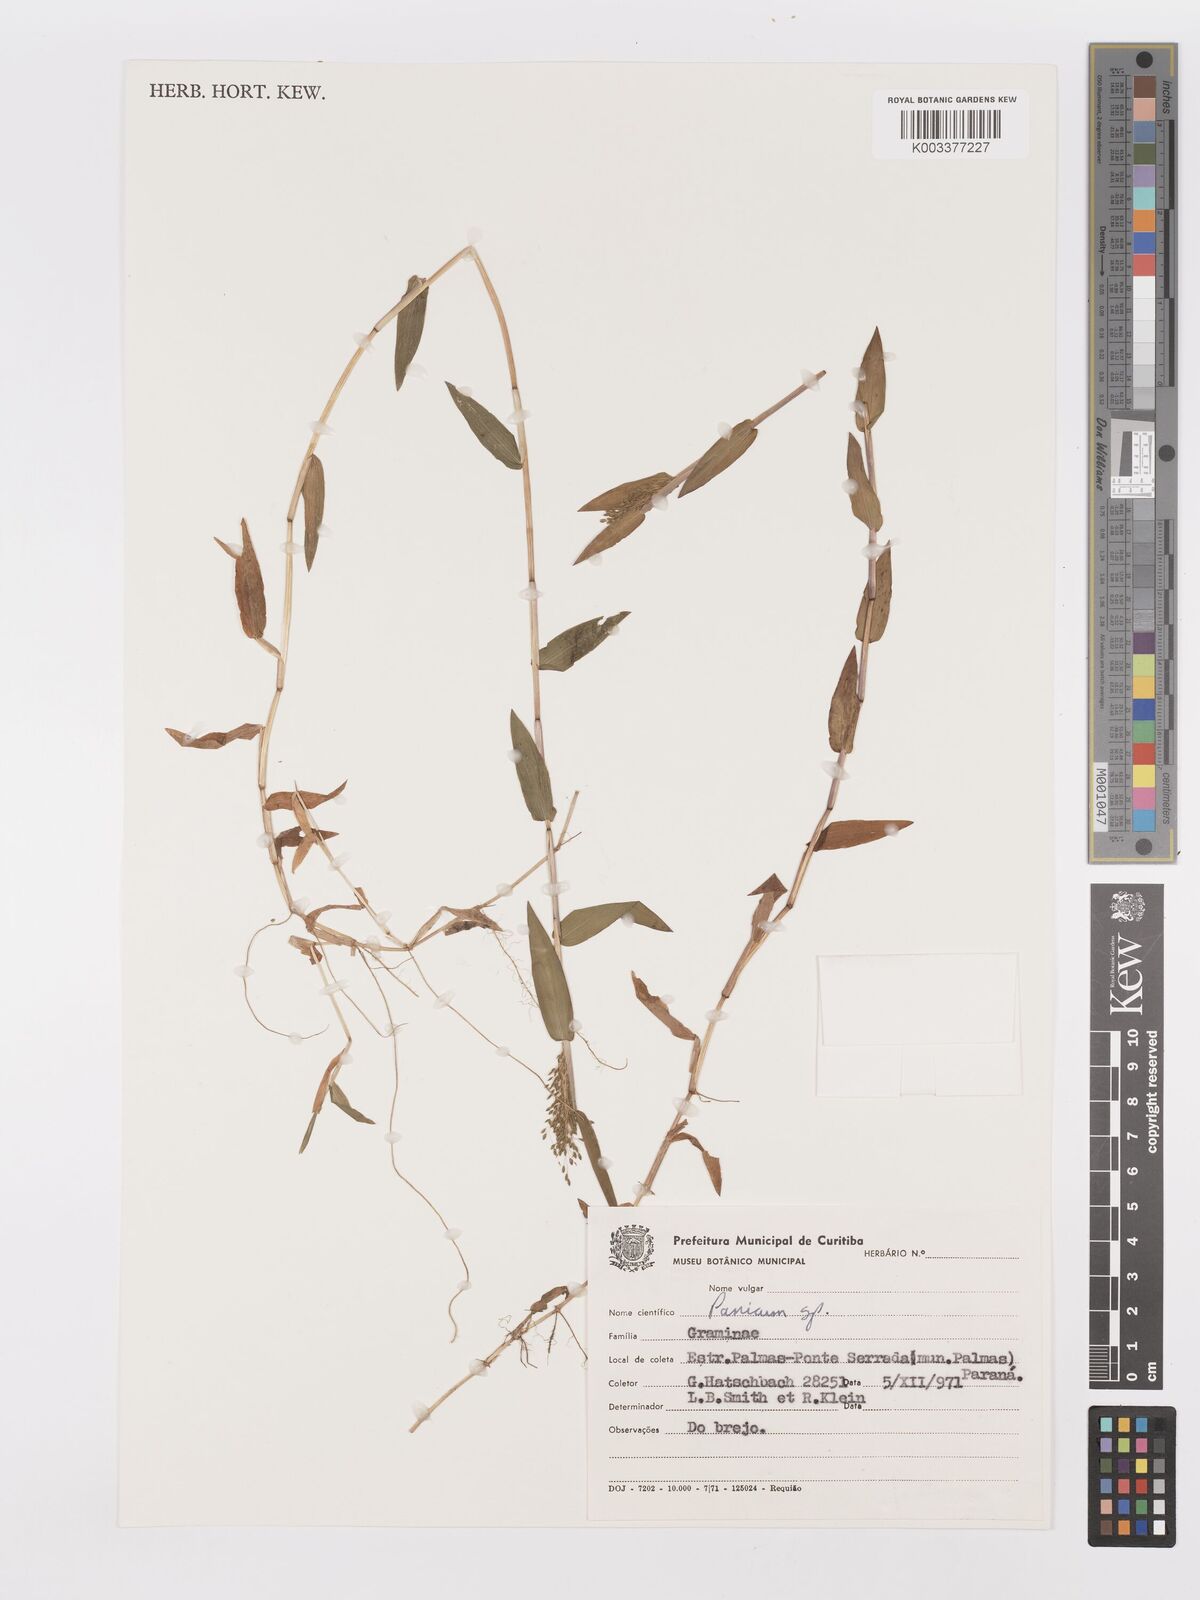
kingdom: Plantae
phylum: Tracheophyta
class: Liliopsida
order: Poales
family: Poaceae
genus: Trichanthecium
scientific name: Trichanthecium schwackeanum
